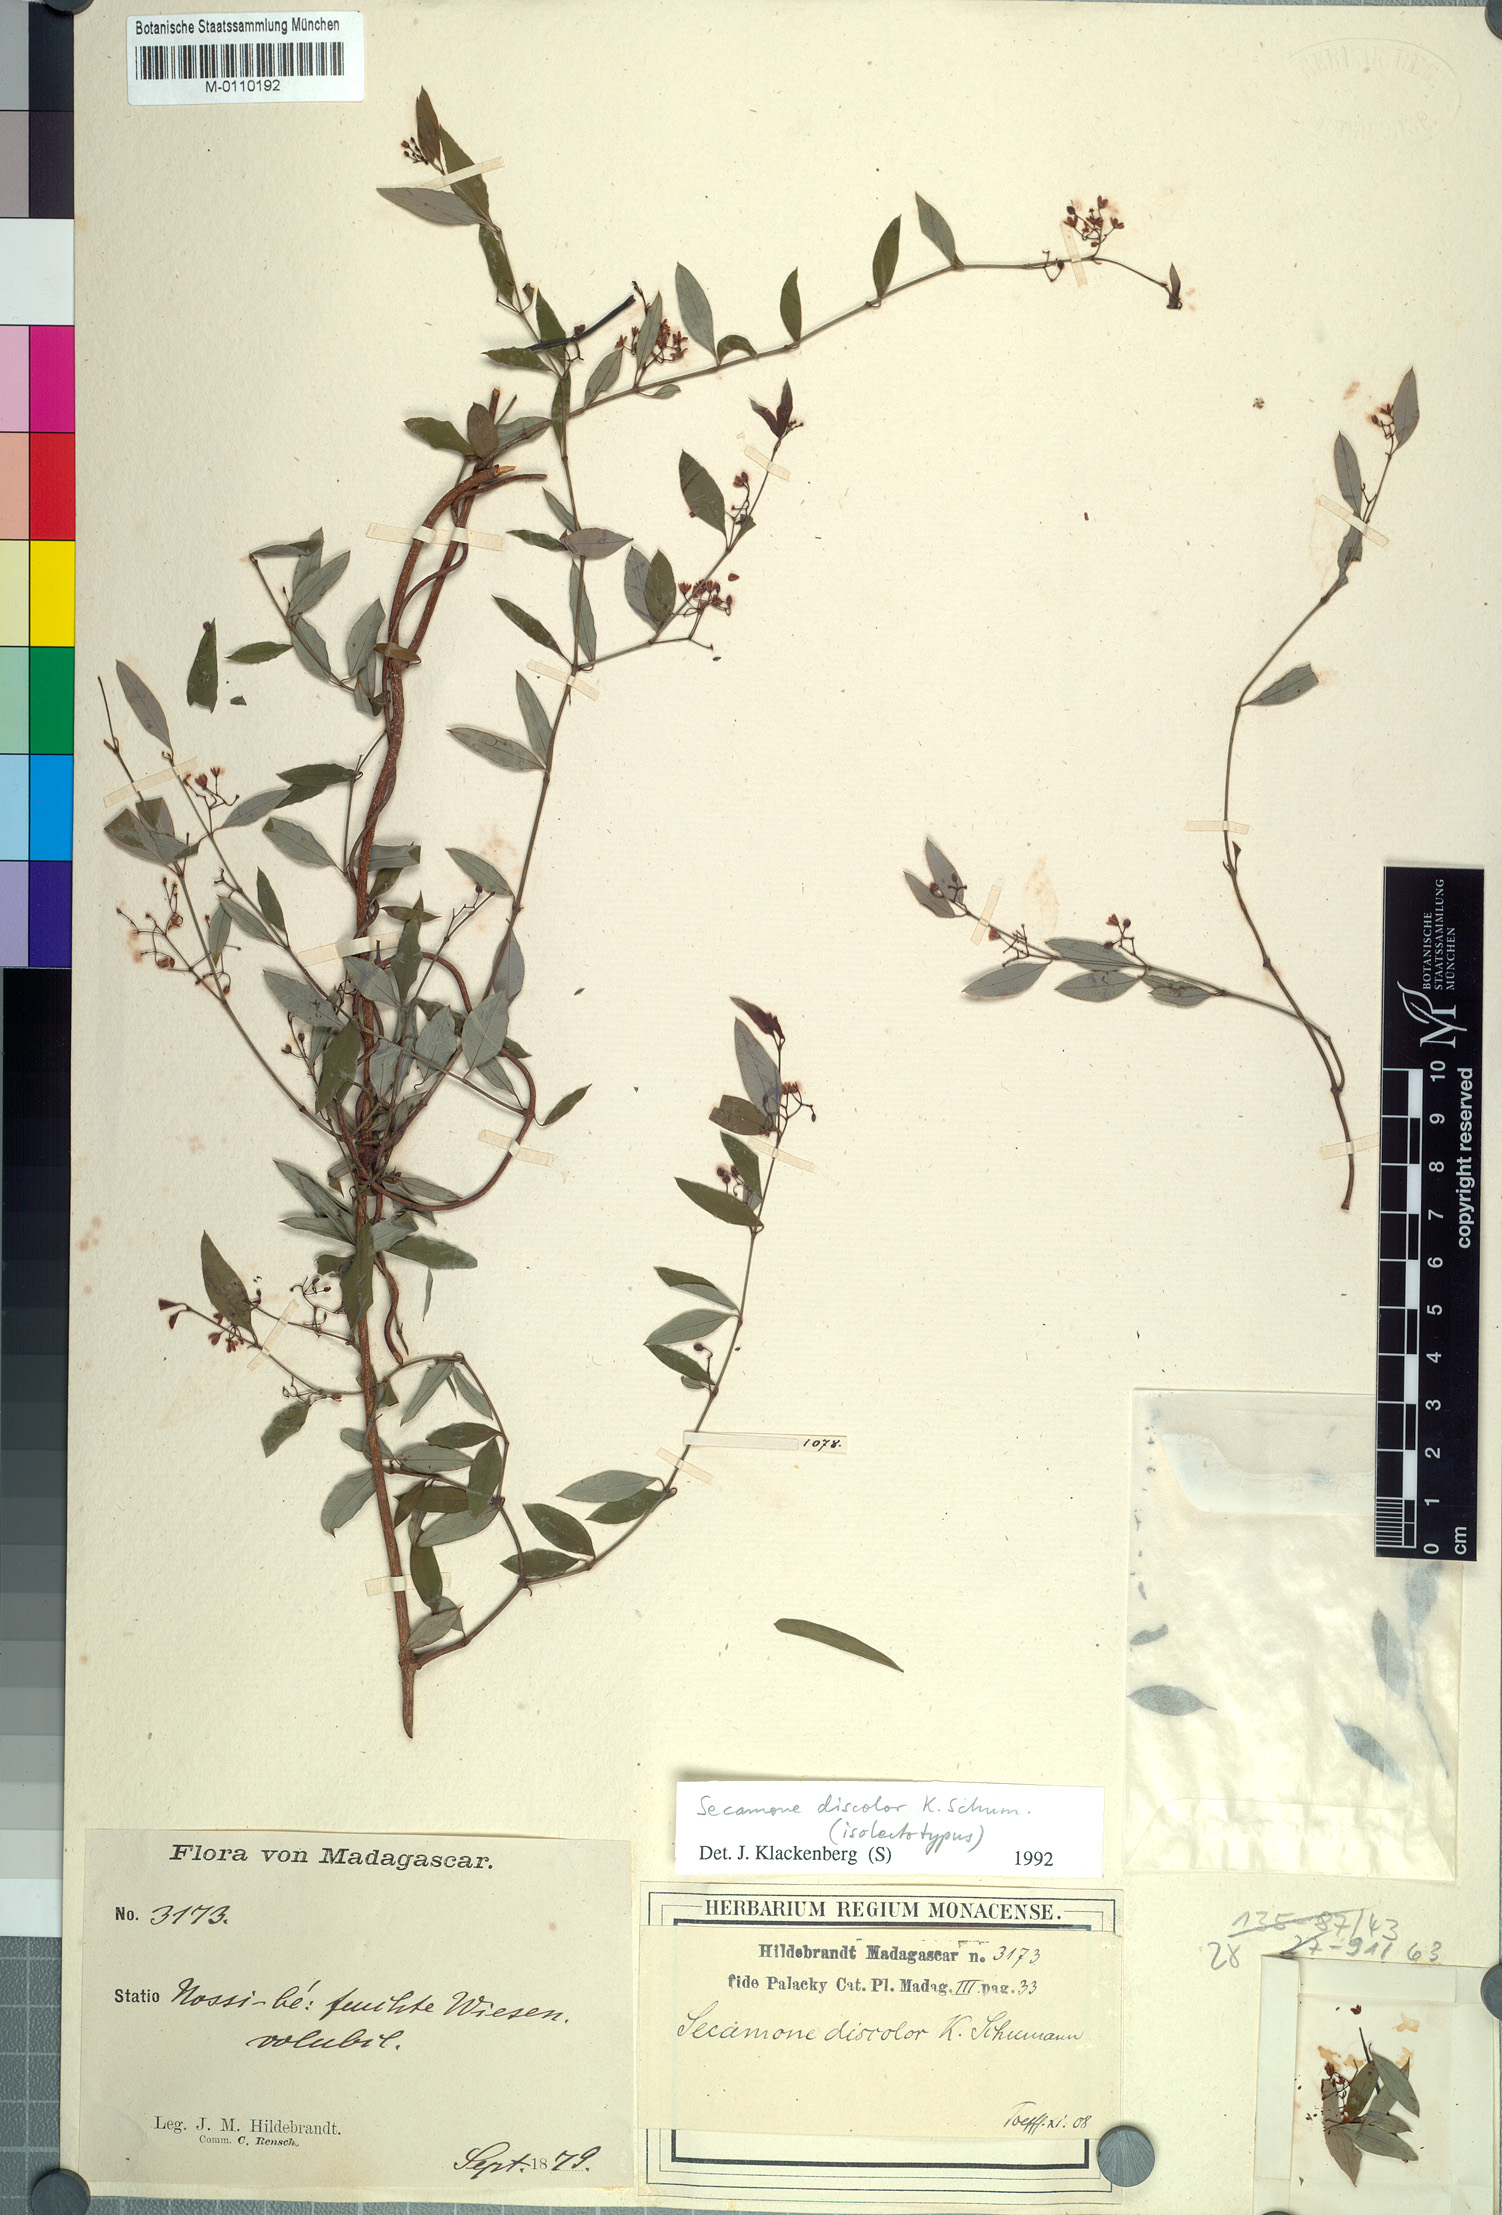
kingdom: Plantae
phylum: Tracheophyta
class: Magnoliopsida
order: Gentianales
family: Apocynaceae
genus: Secamone
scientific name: Secamone discolor
